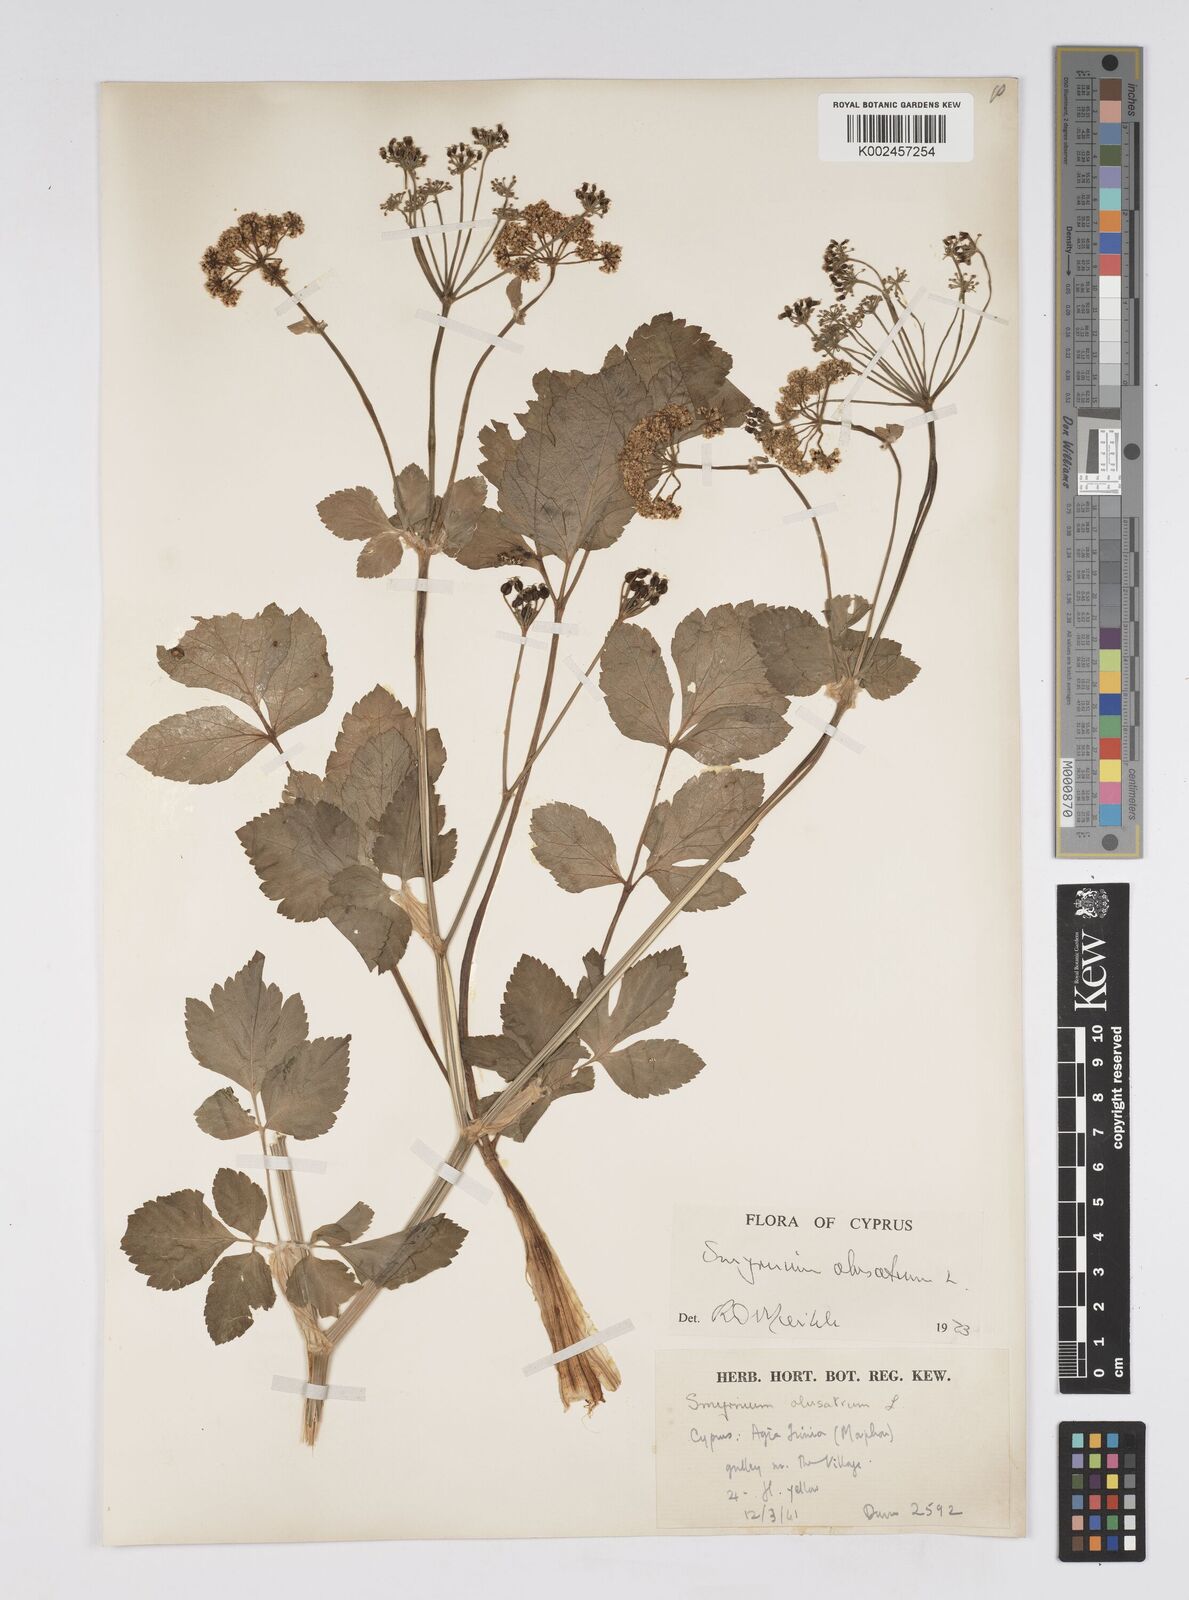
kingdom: Plantae
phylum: Tracheophyta
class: Magnoliopsida
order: Apiales
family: Apiaceae
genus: Smyrnium
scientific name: Smyrnium olusatrum
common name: Alexanders
